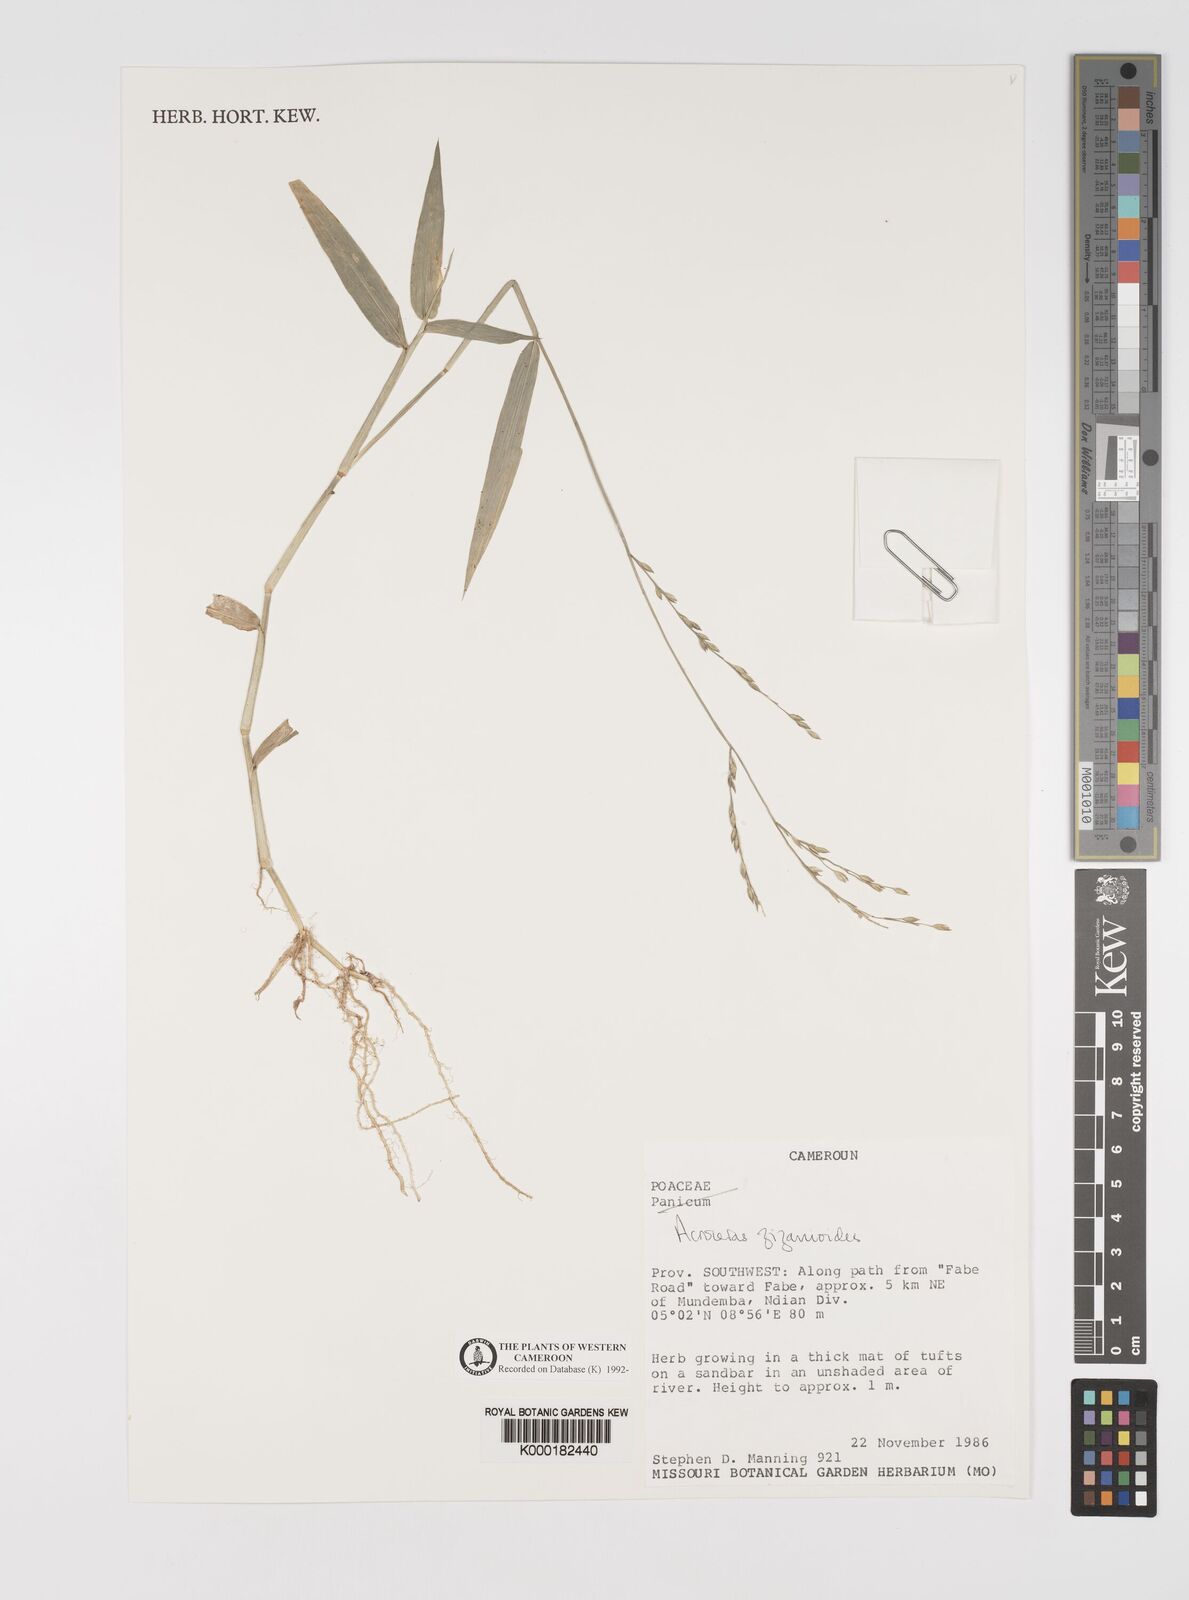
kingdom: Plantae
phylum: Tracheophyta
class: Liliopsida
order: Poales
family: Poaceae
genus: Acroceras
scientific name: Acroceras zizanioides
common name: Oat grass
